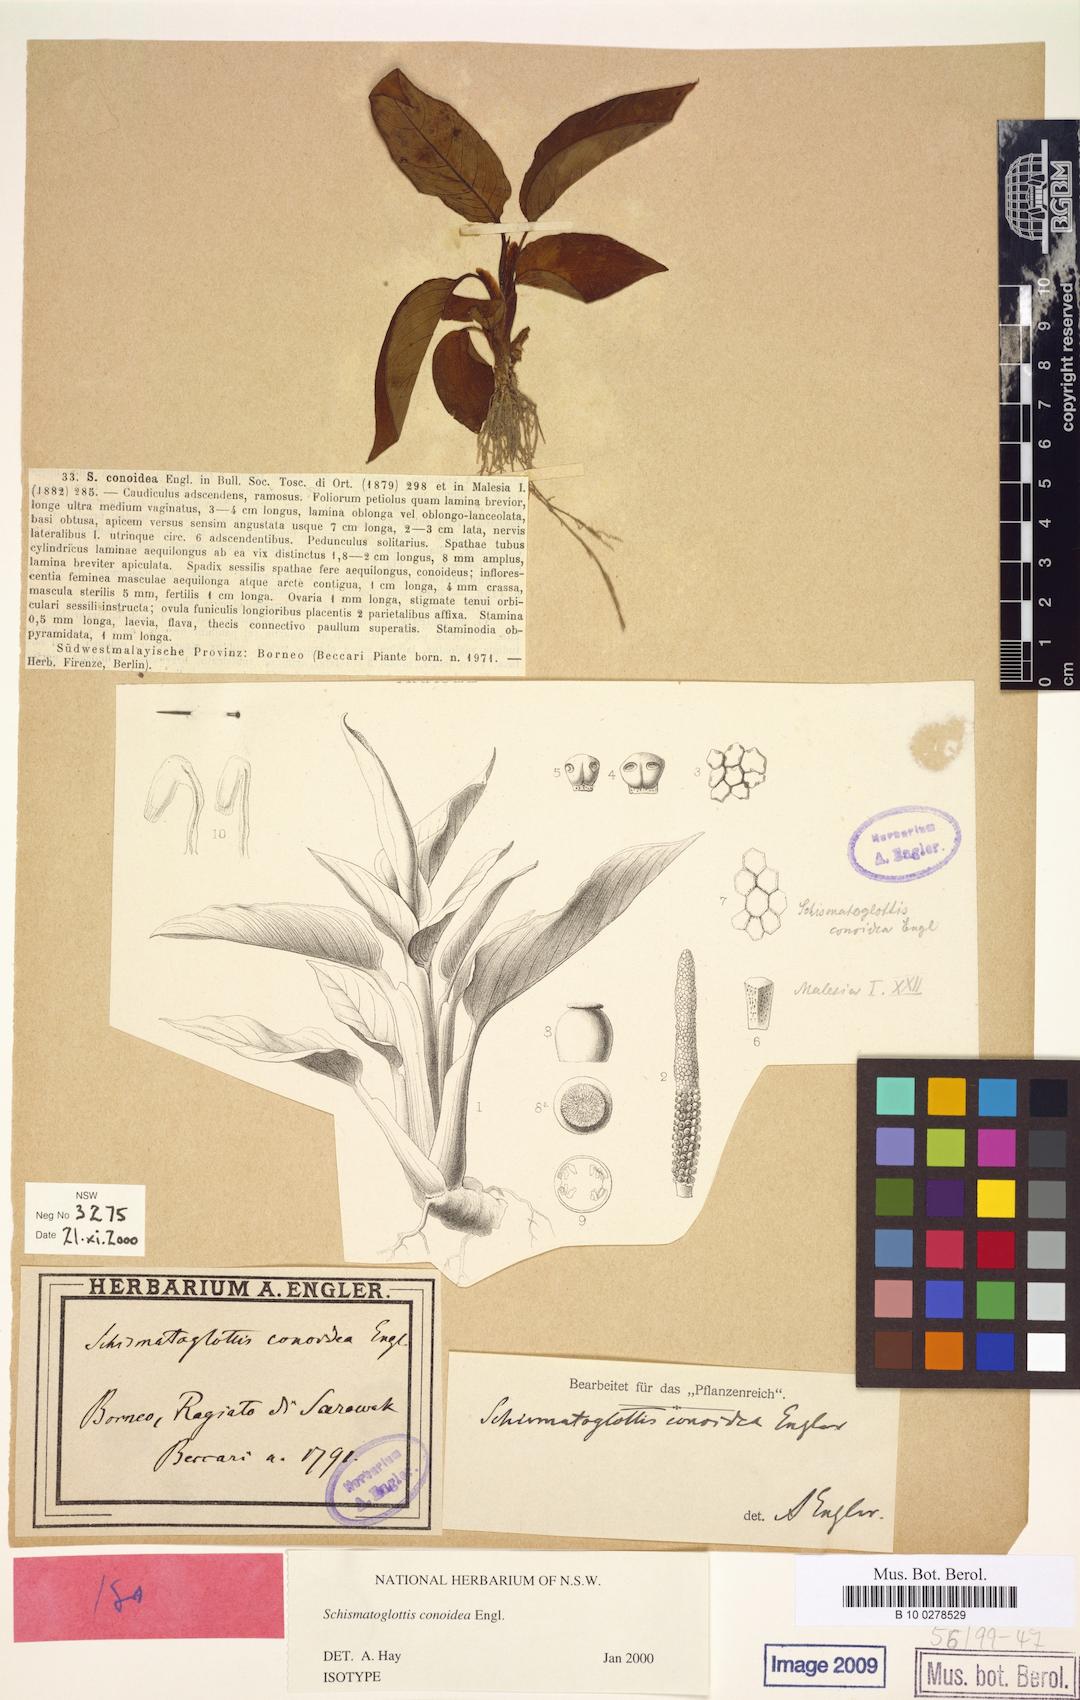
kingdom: Plantae
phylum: Tracheophyta
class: Liliopsida
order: Alismatales
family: Araceae
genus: Schismatoglottis
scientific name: Schismatoglottis conoidea
